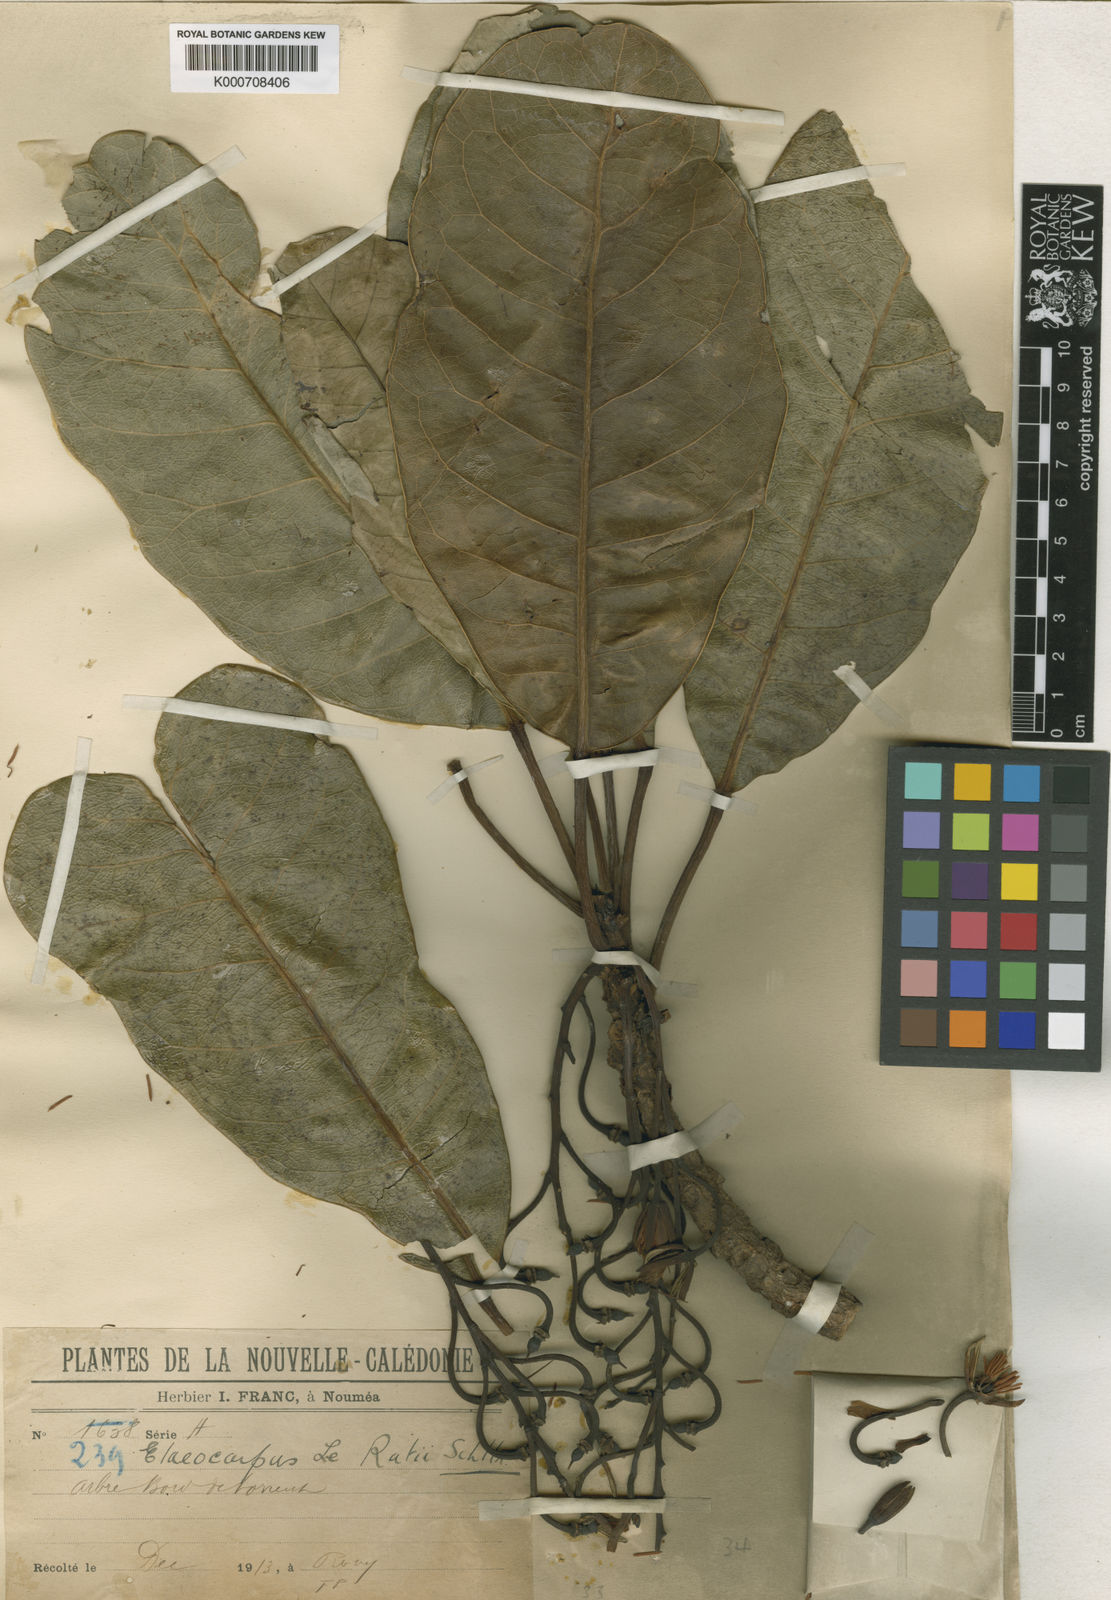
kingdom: Plantae
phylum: Tracheophyta
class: Magnoliopsida
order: Oxalidales
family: Elaeocarpaceae
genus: Elaeocarpus
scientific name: Elaeocarpus leratii
